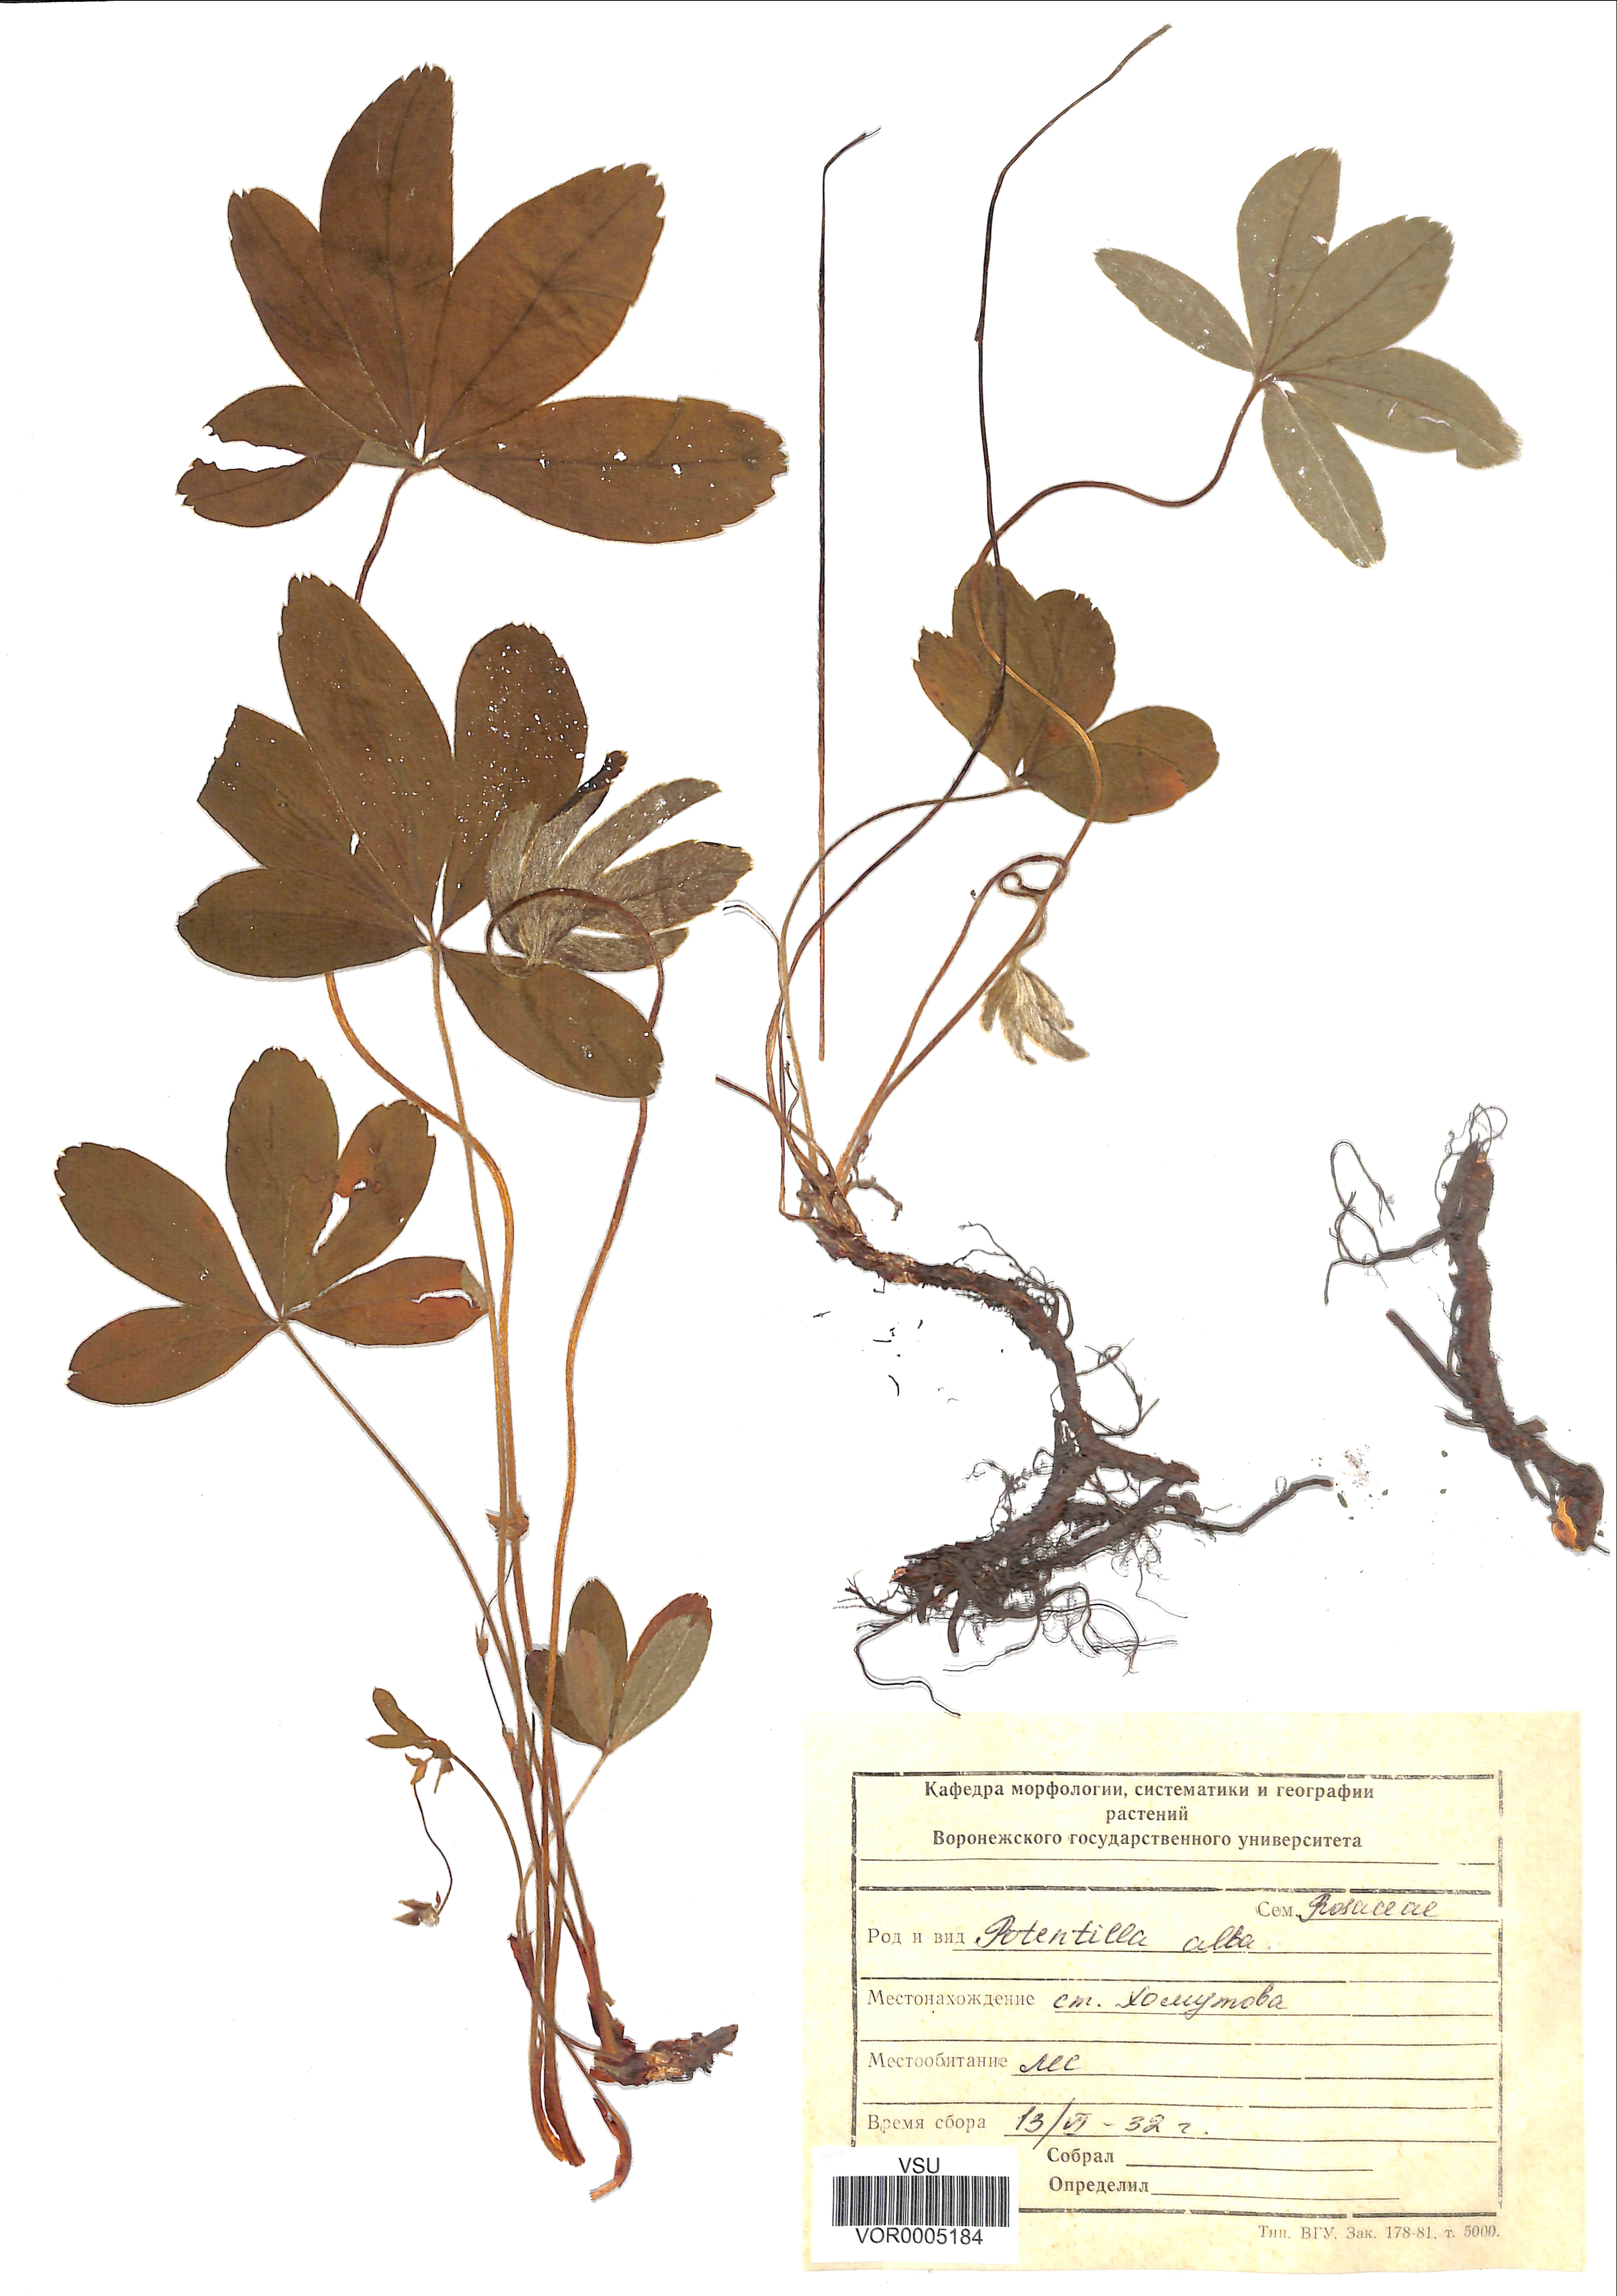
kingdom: Plantae
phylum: Tracheophyta
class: Magnoliopsida
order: Rosales
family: Rosaceae
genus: Potentilla
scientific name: Potentilla alba
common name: White cinquefoil
